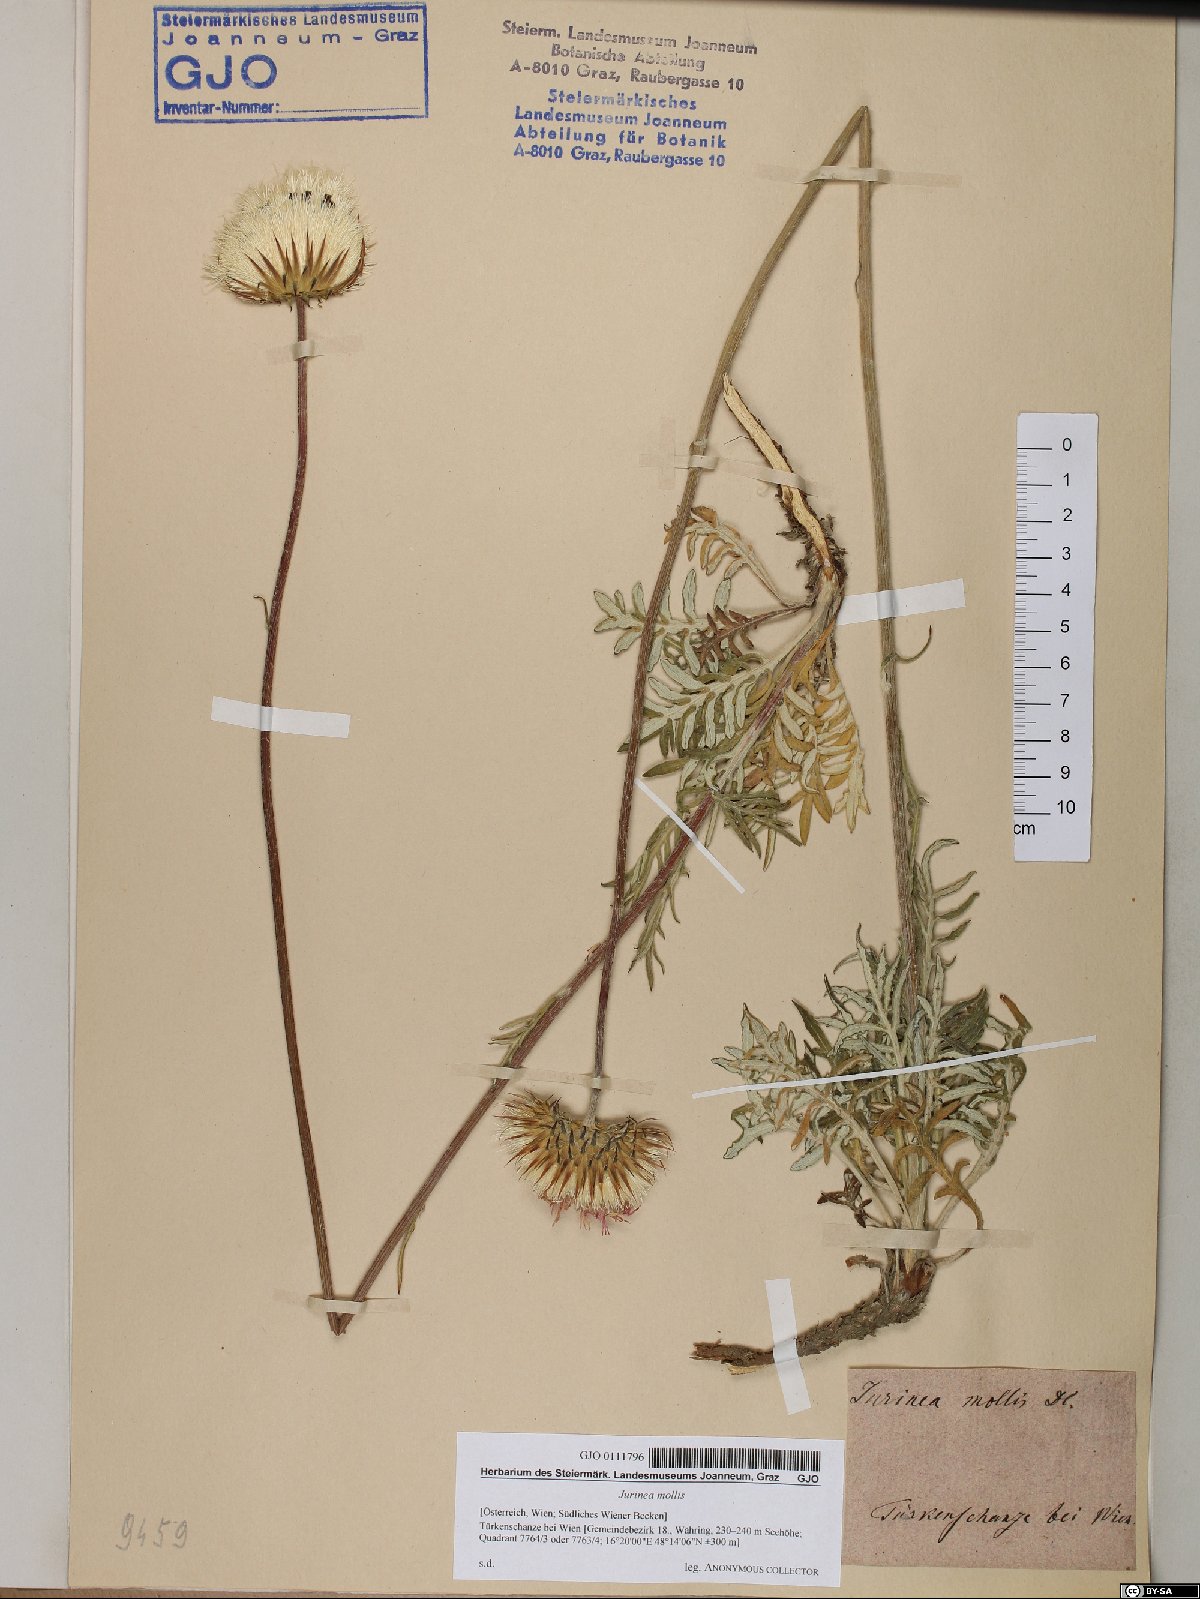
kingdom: Plantae
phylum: Tracheophyta
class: Magnoliopsida
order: Asterales
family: Asteraceae
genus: Jurinea
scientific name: Jurinea mollis
